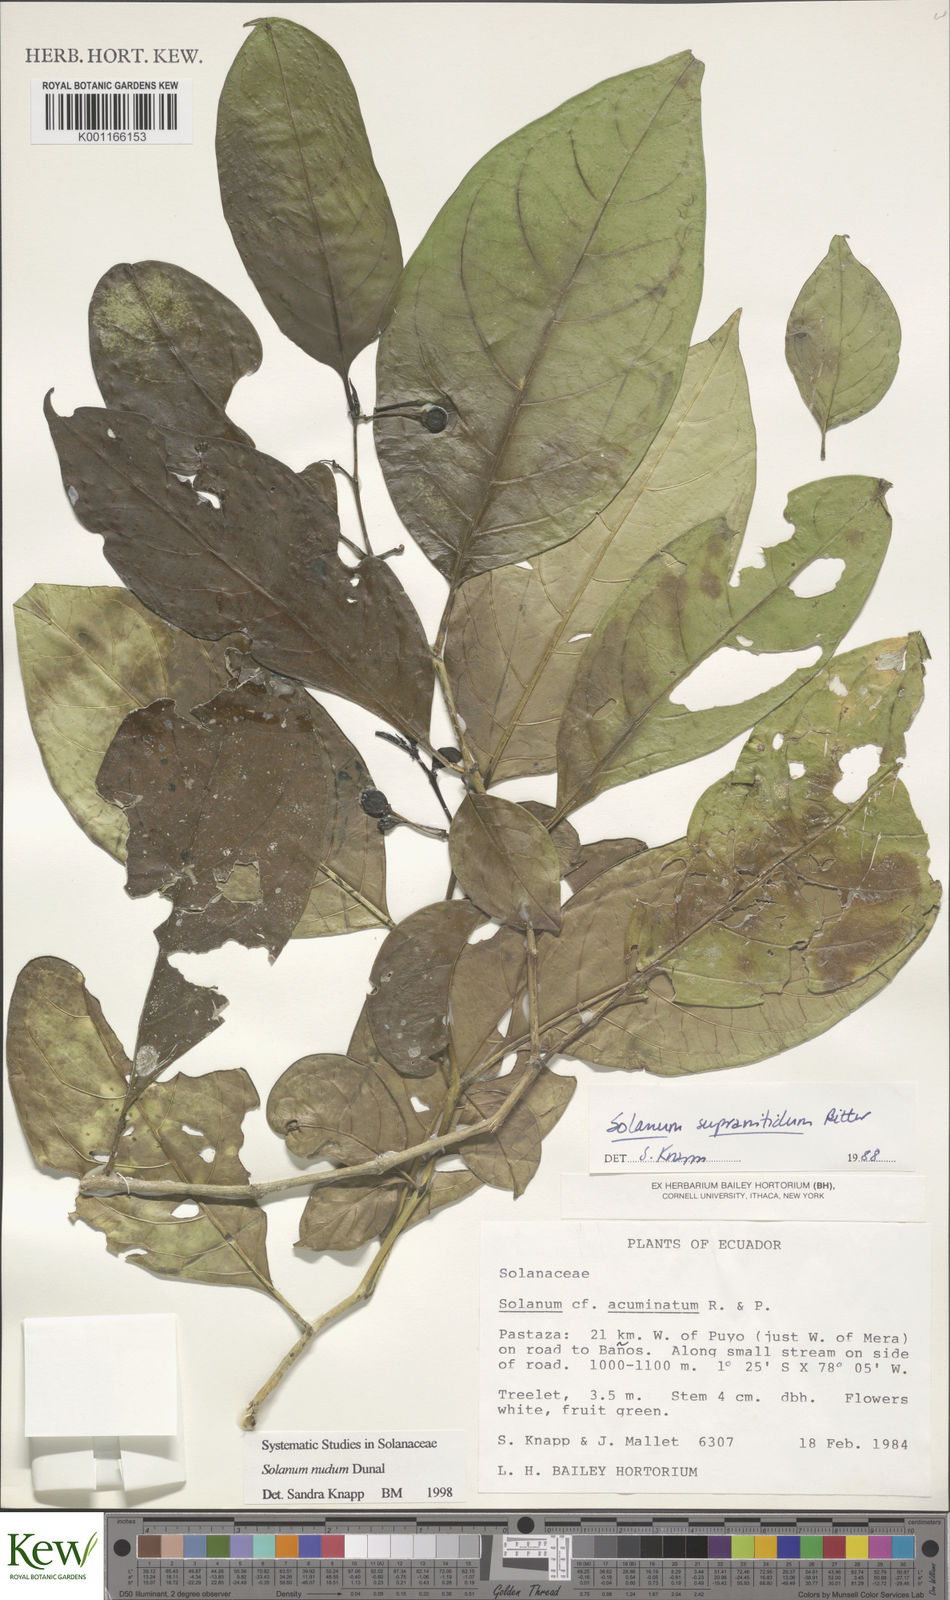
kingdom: Plantae
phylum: Tracheophyta
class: Magnoliopsida
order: Solanales
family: Solanaceae
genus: Solanum
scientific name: Solanum nudum
